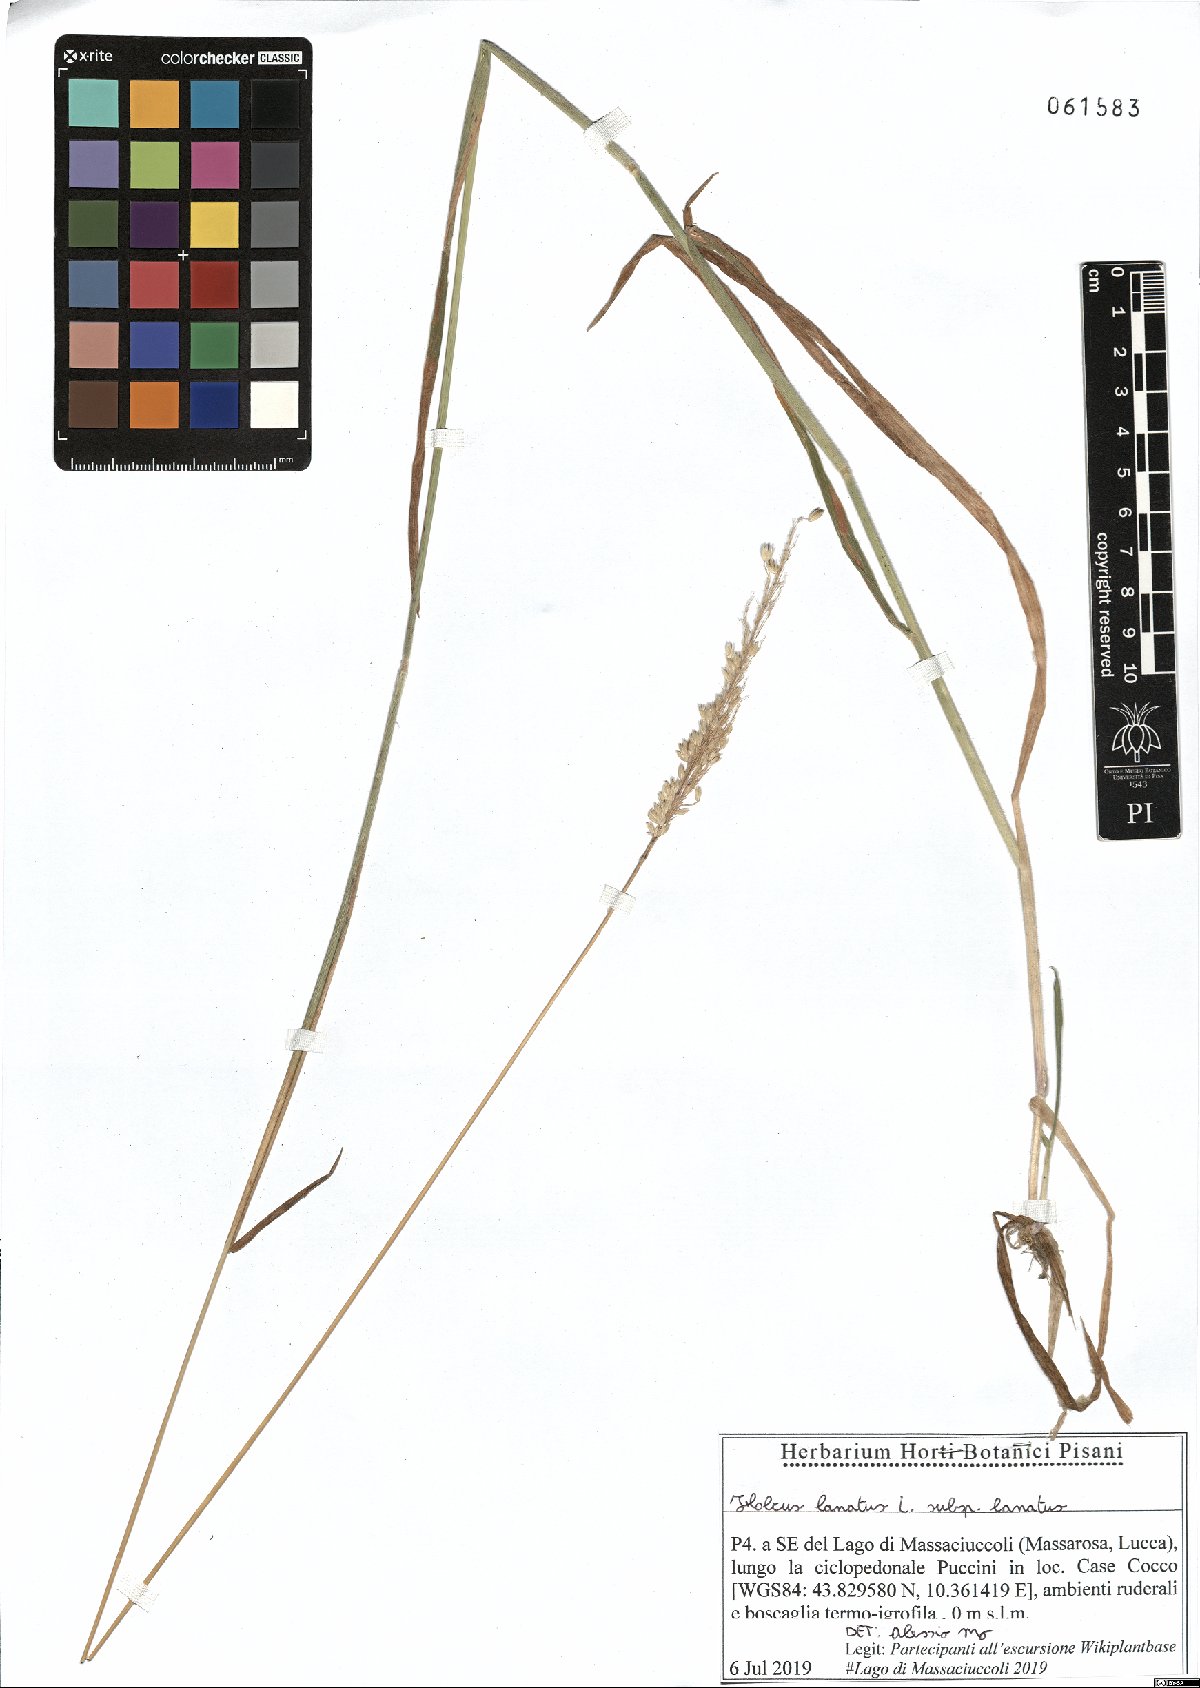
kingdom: Plantae
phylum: Tracheophyta
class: Liliopsida
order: Poales
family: Poaceae
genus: Holcus
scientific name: Holcus lanatus
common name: Yorkshire-fog
